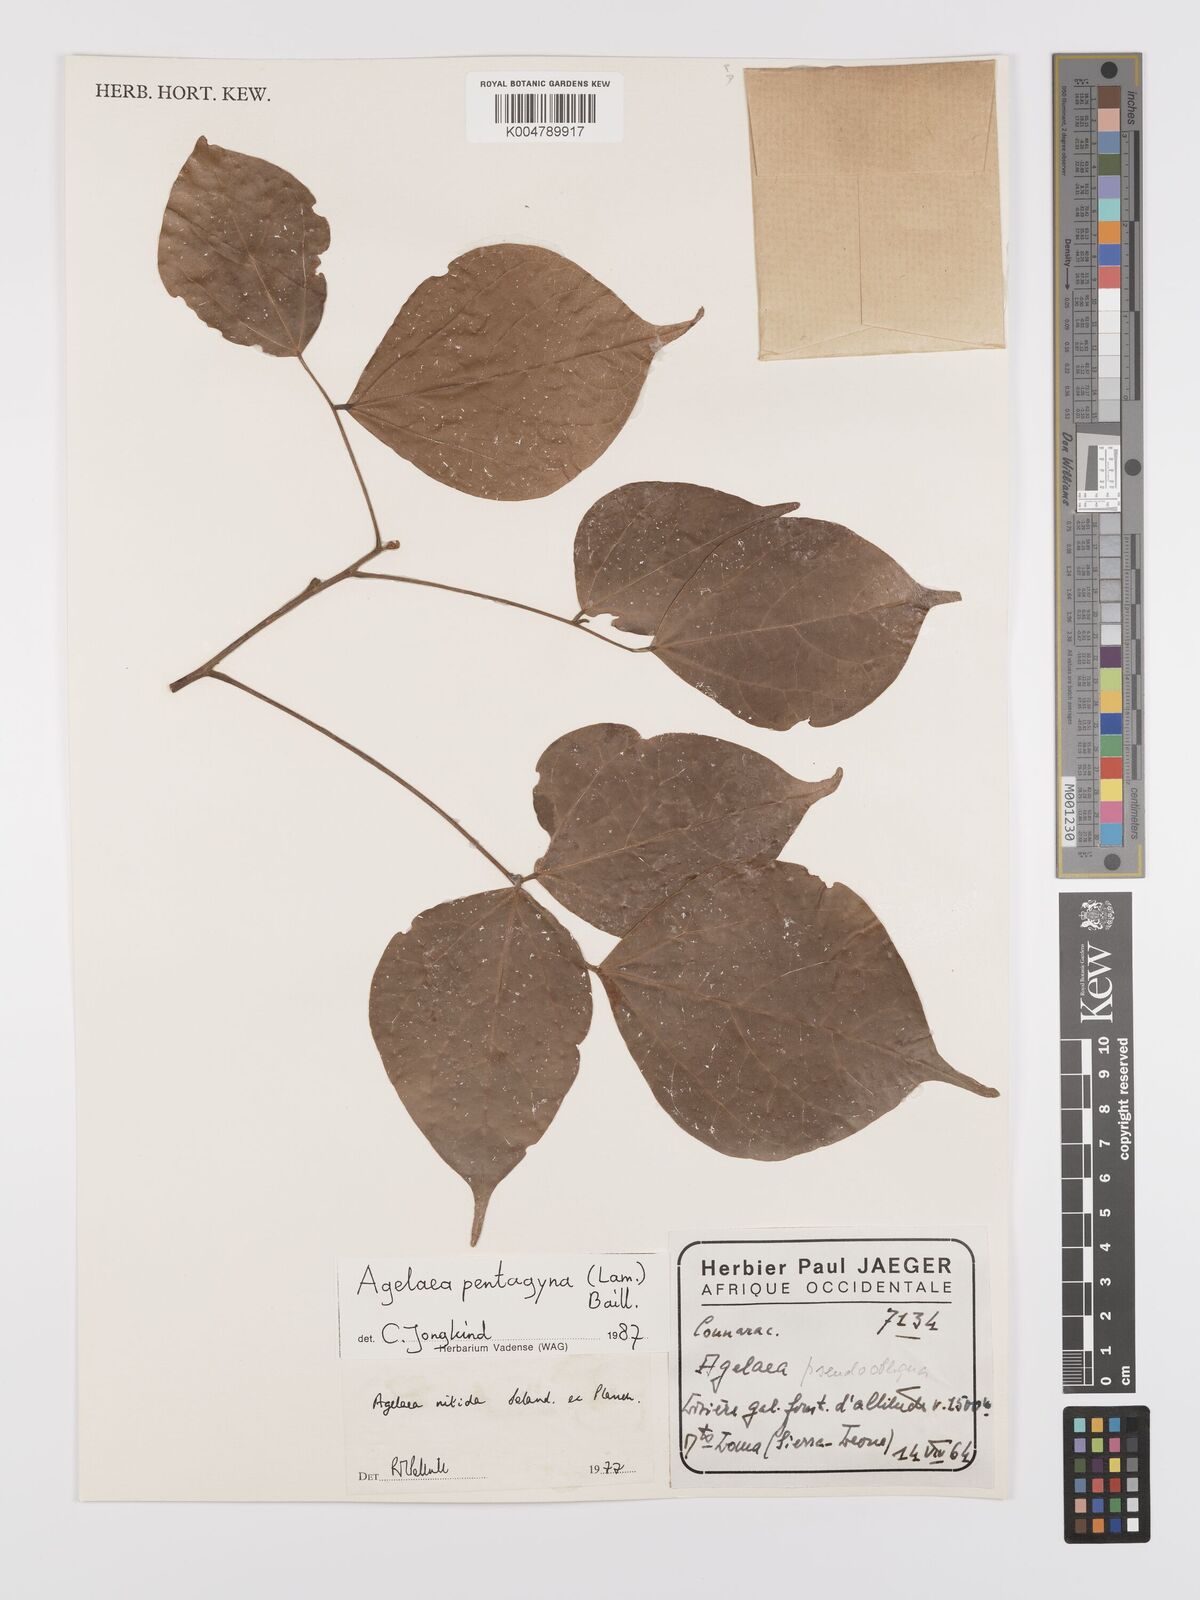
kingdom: Plantae
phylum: Tracheophyta
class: Magnoliopsida
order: Oxalidales
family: Connaraceae
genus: Agelaea
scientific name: Agelaea pentagyna
